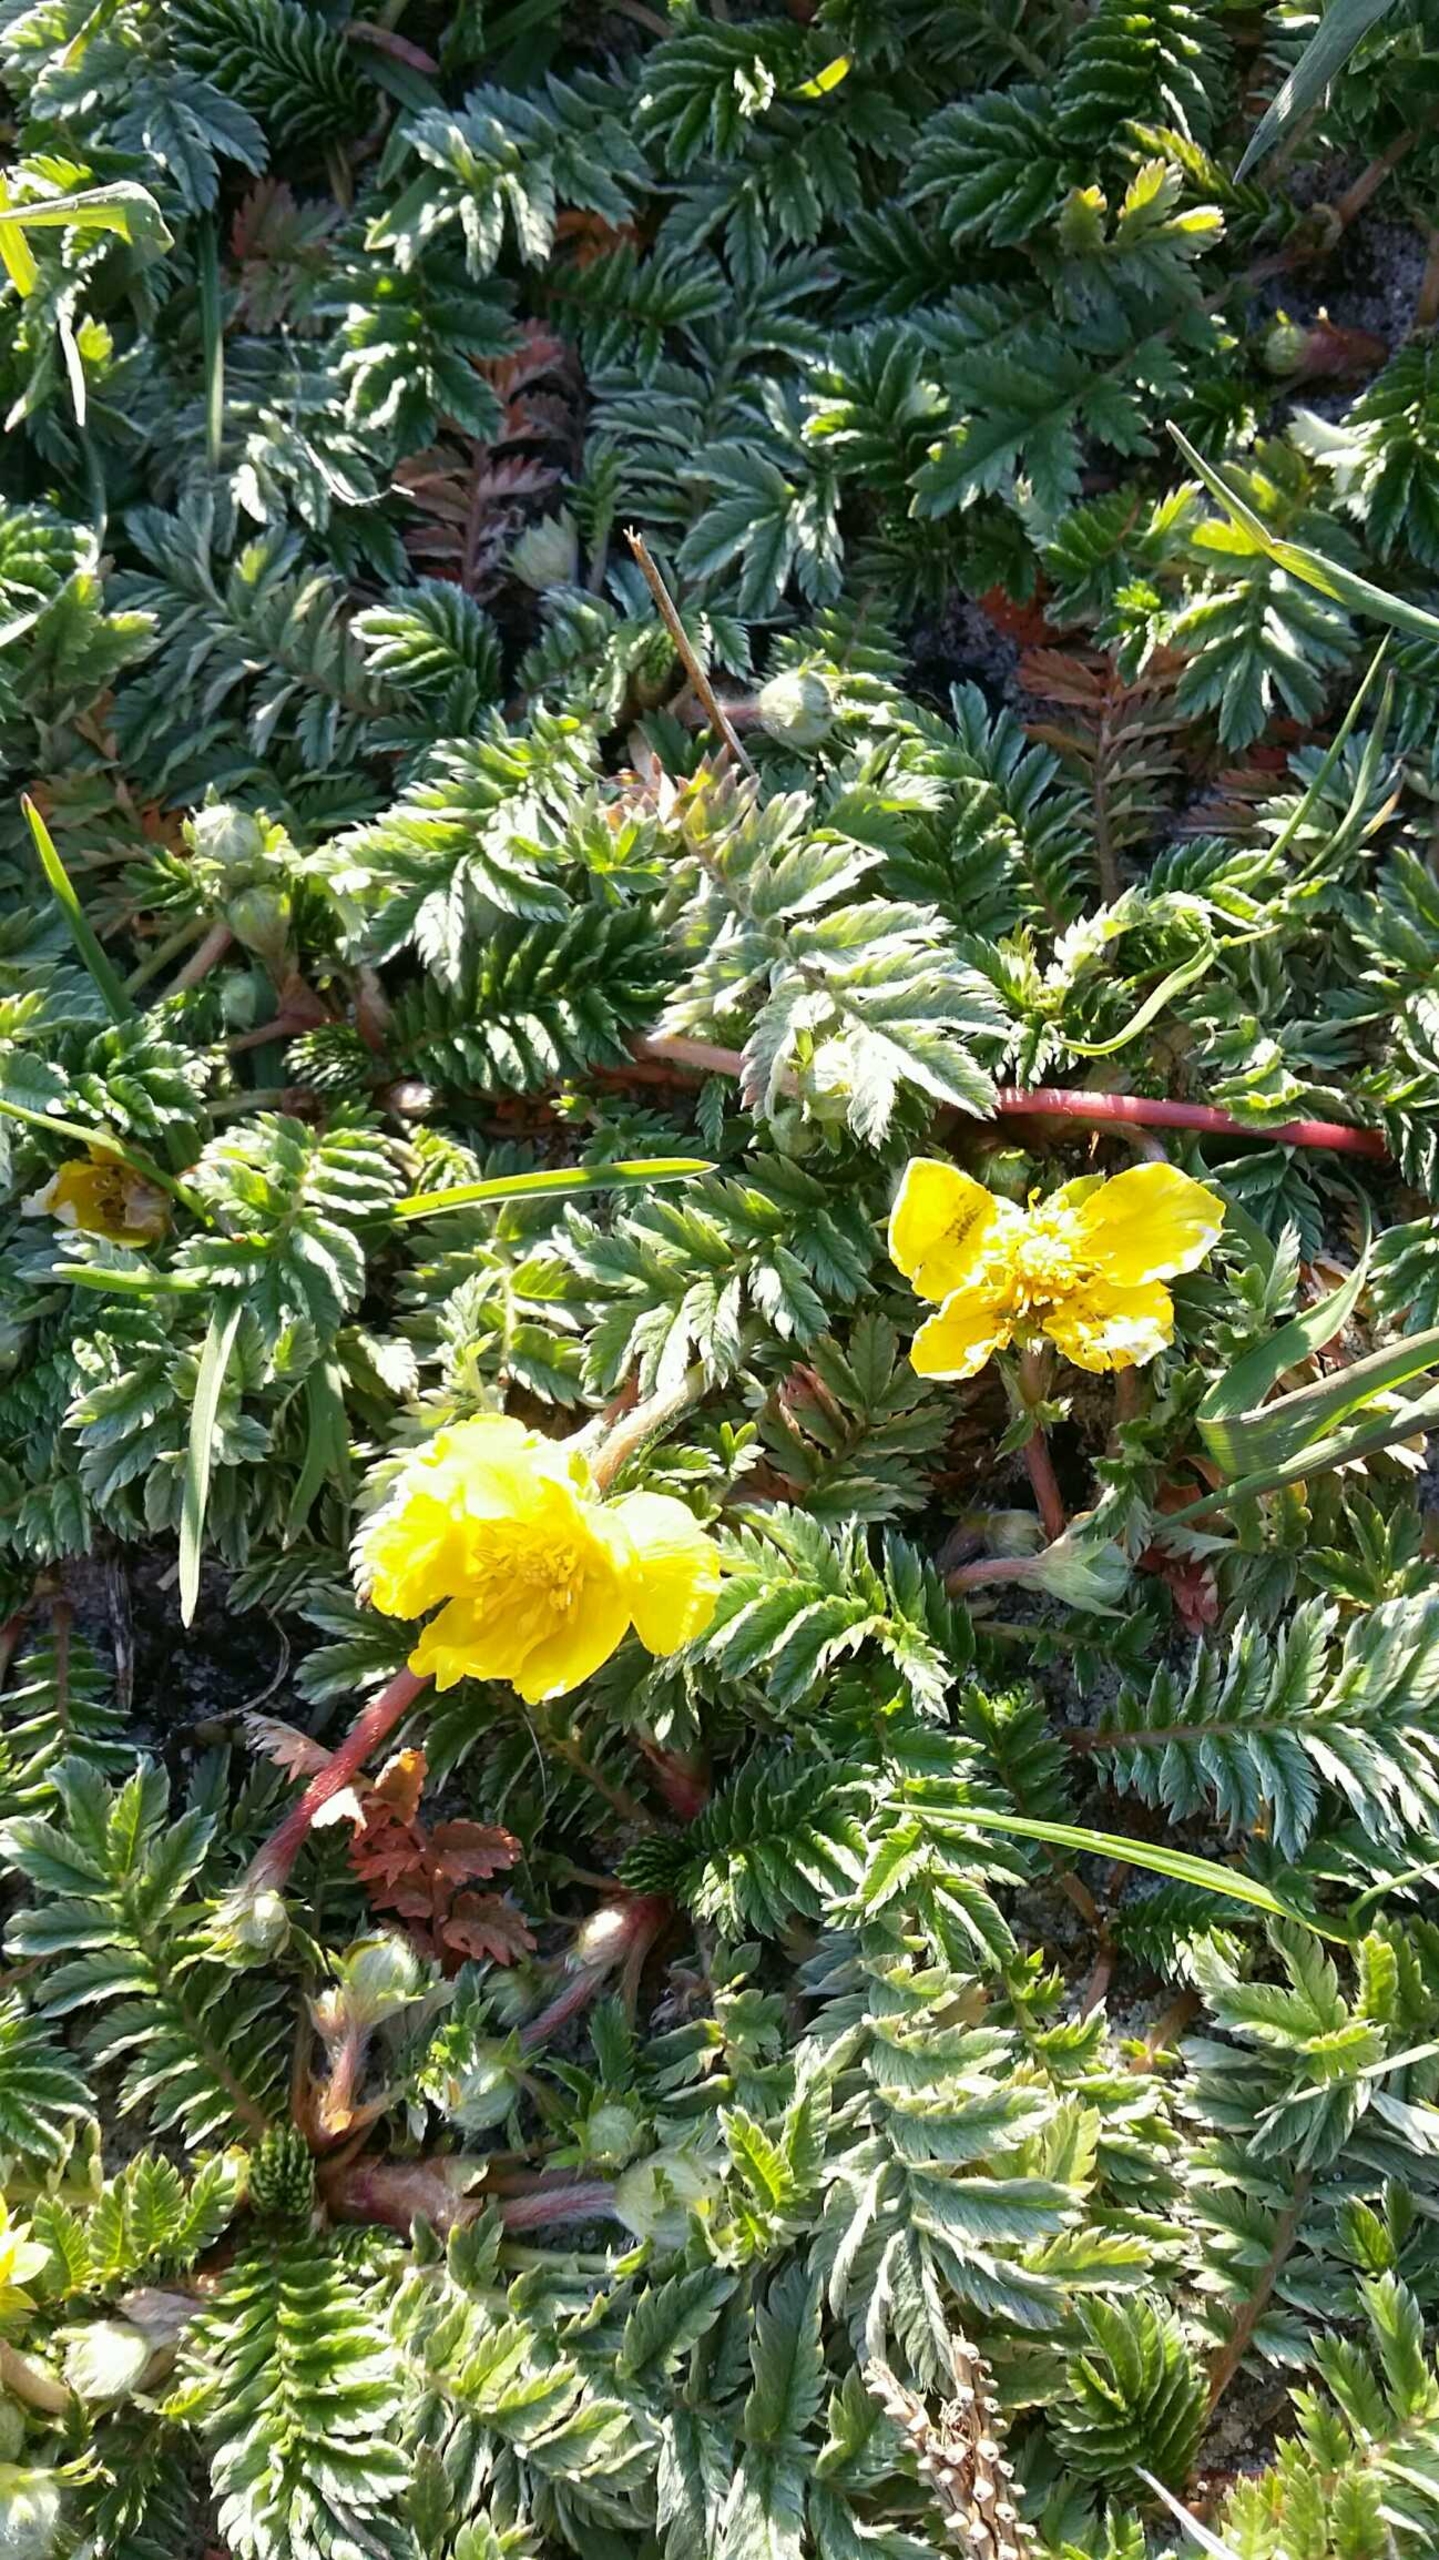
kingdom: Plantae
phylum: Tracheophyta
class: Magnoliopsida
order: Rosales
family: Rosaceae
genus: Argentina
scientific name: Argentina anserina
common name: Gåsepotentil
